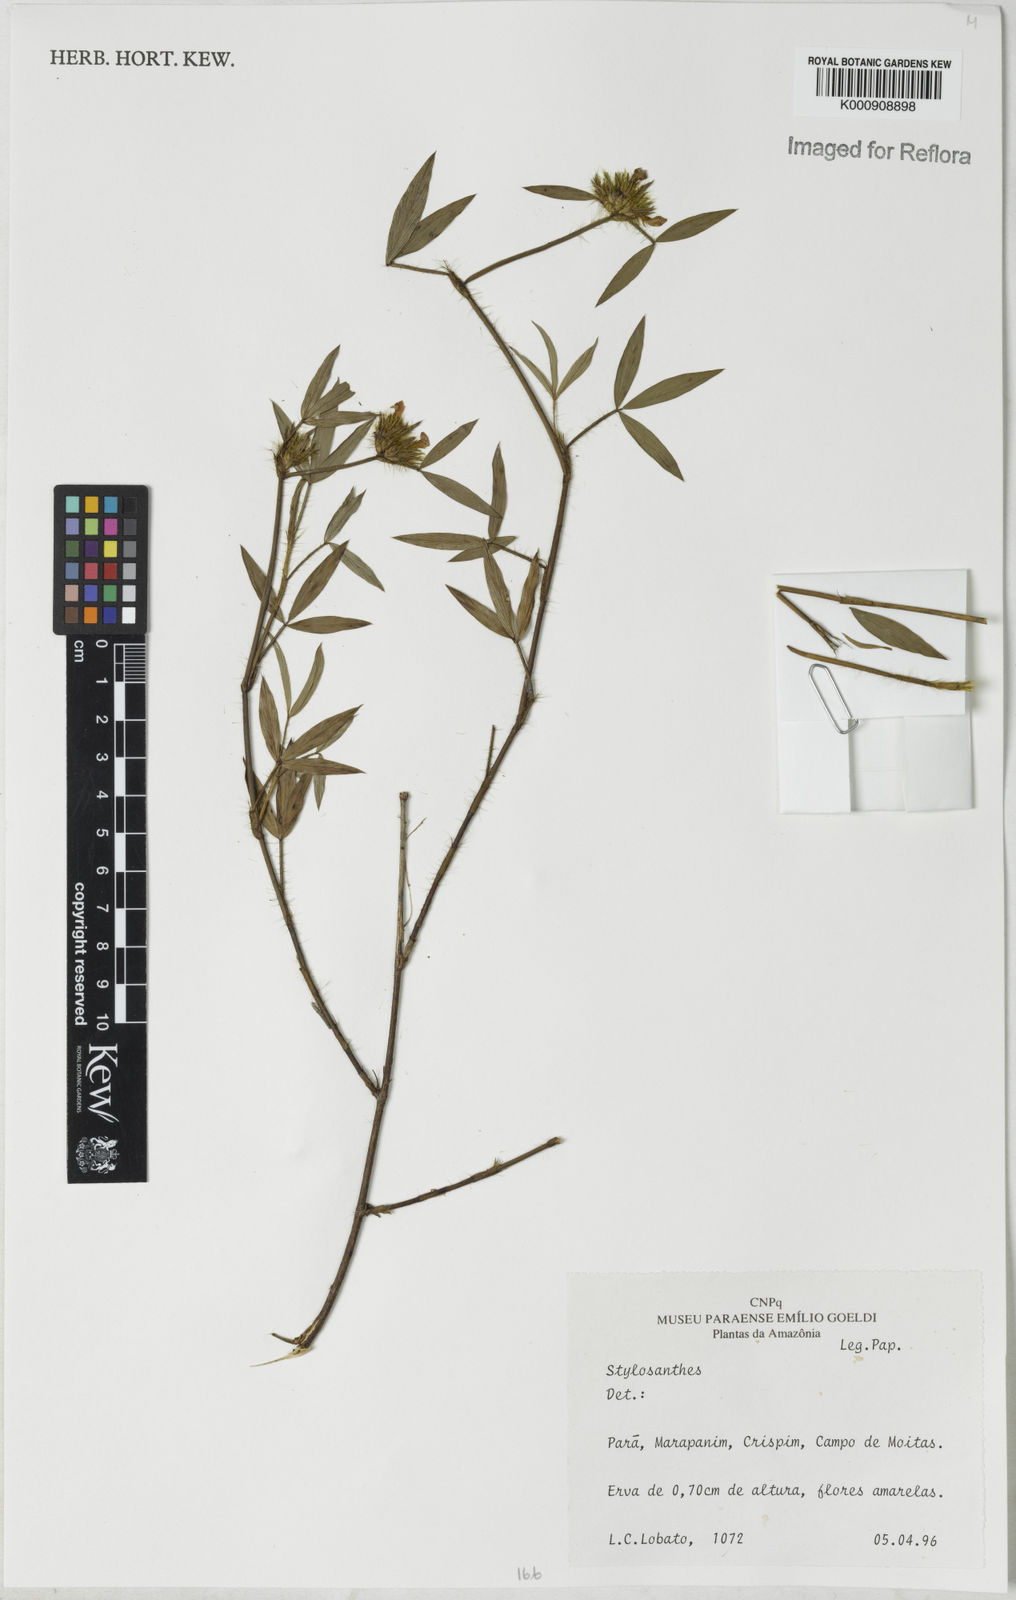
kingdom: Plantae
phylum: Tracheophyta
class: Magnoliopsida
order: Fabales
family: Fabaceae
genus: Stylosanthes
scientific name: Stylosanthes
